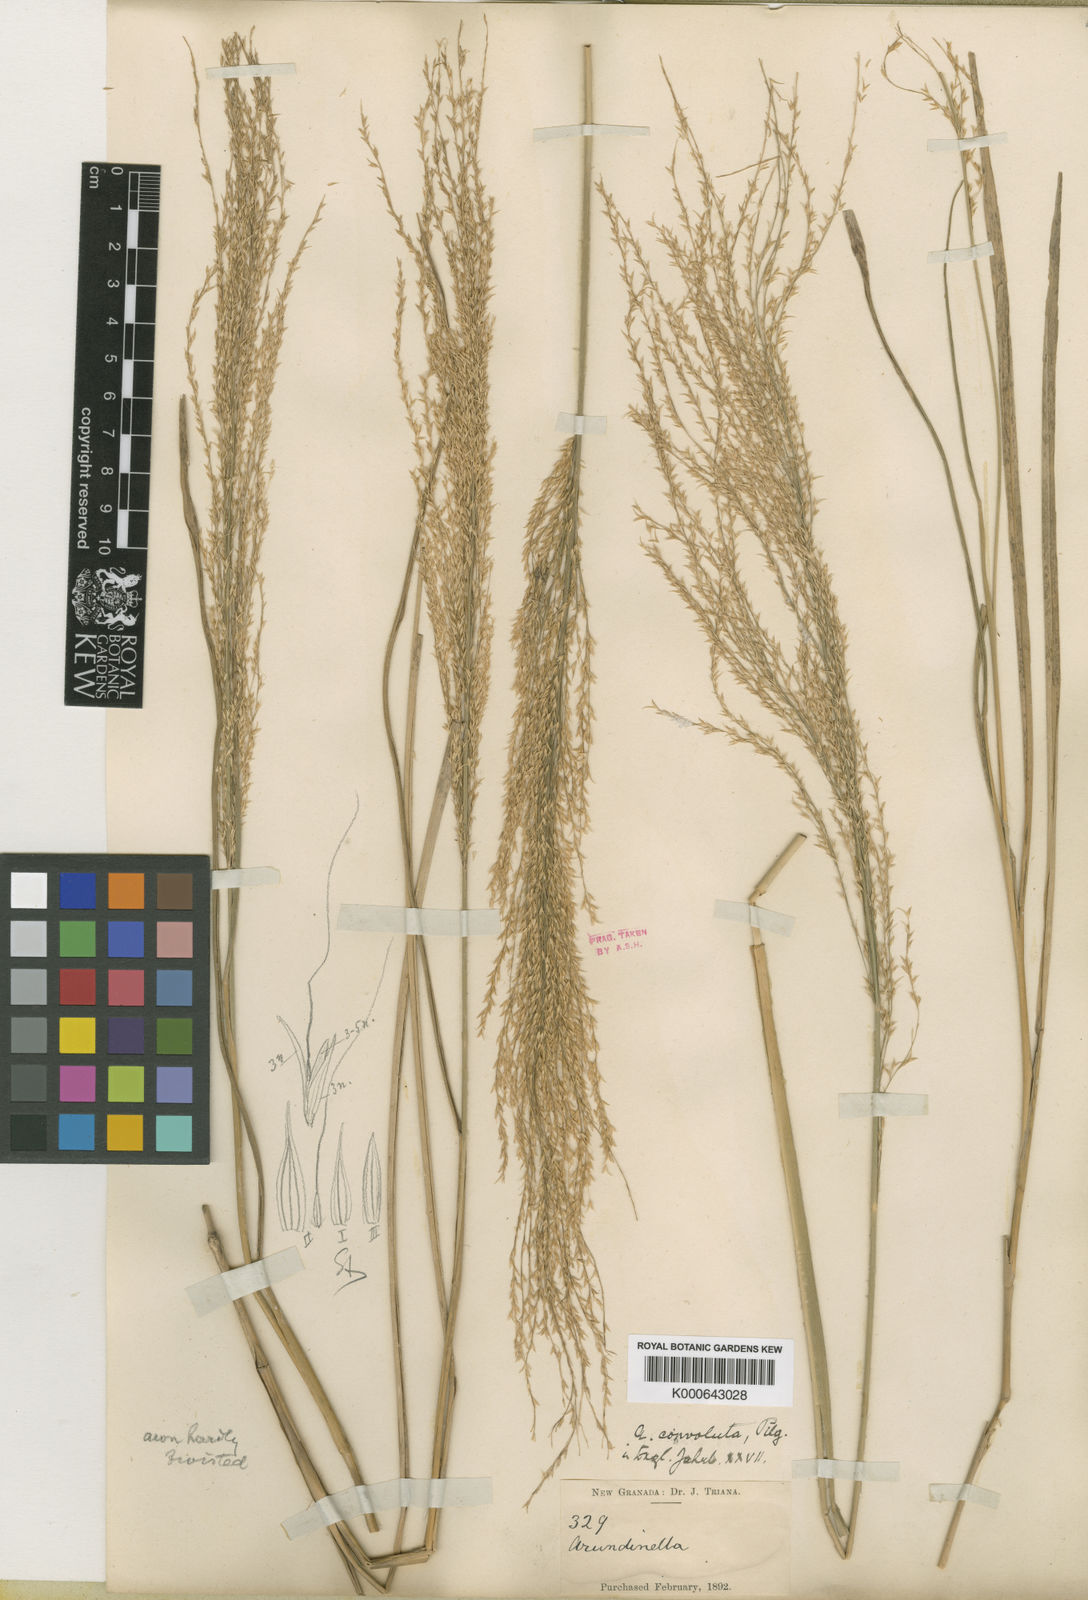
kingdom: Plantae
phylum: Tracheophyta
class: Liliopsida
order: Poales
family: Poaceae
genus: Arundinella
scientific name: Arundinella berteroniana
